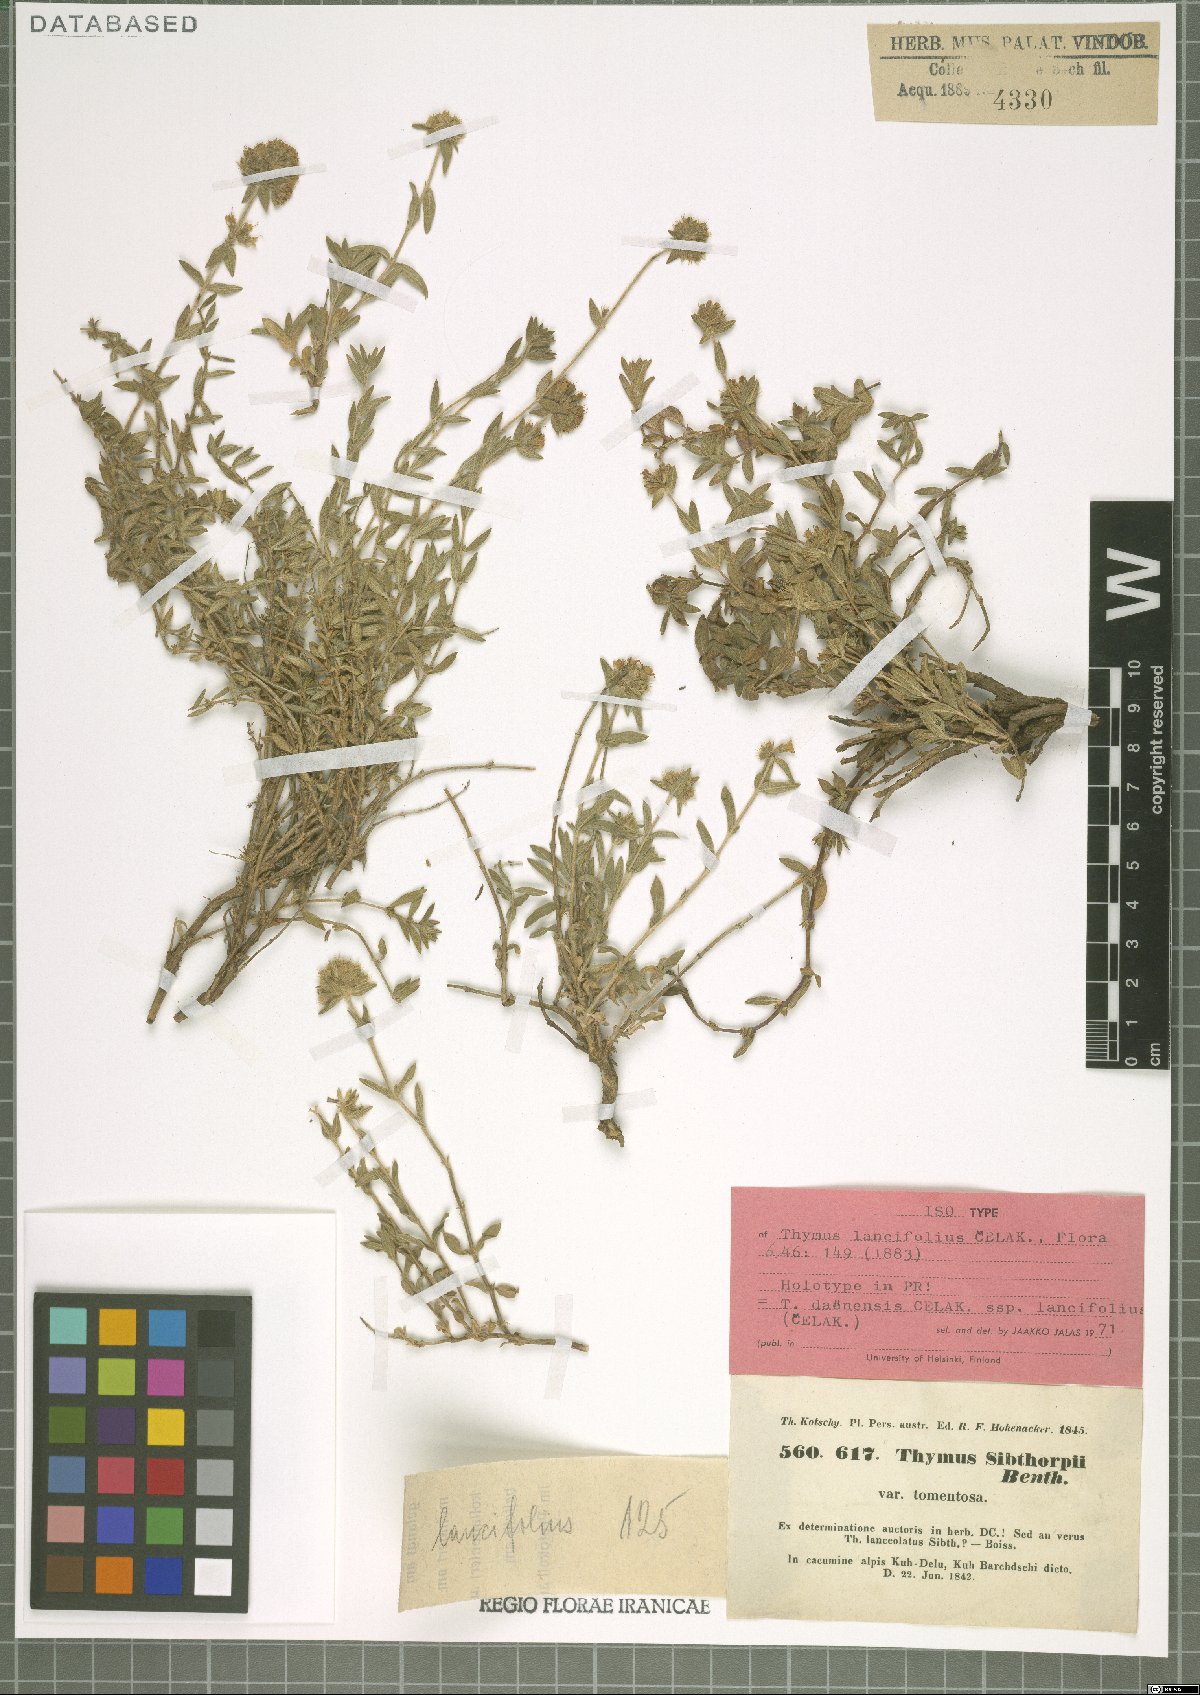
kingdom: Plantae
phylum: Tracheophyta
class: Magnoliopsida
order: Lamiales
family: Lamiaceae
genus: Thymus
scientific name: Thymus daenensis
